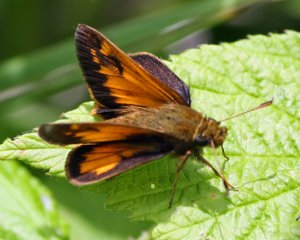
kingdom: Animalia
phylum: Arthropoda
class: Insecta
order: Lepidoptera
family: Hesperiidae
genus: Lon
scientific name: Lon hobomok
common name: Hobomok Skipper
